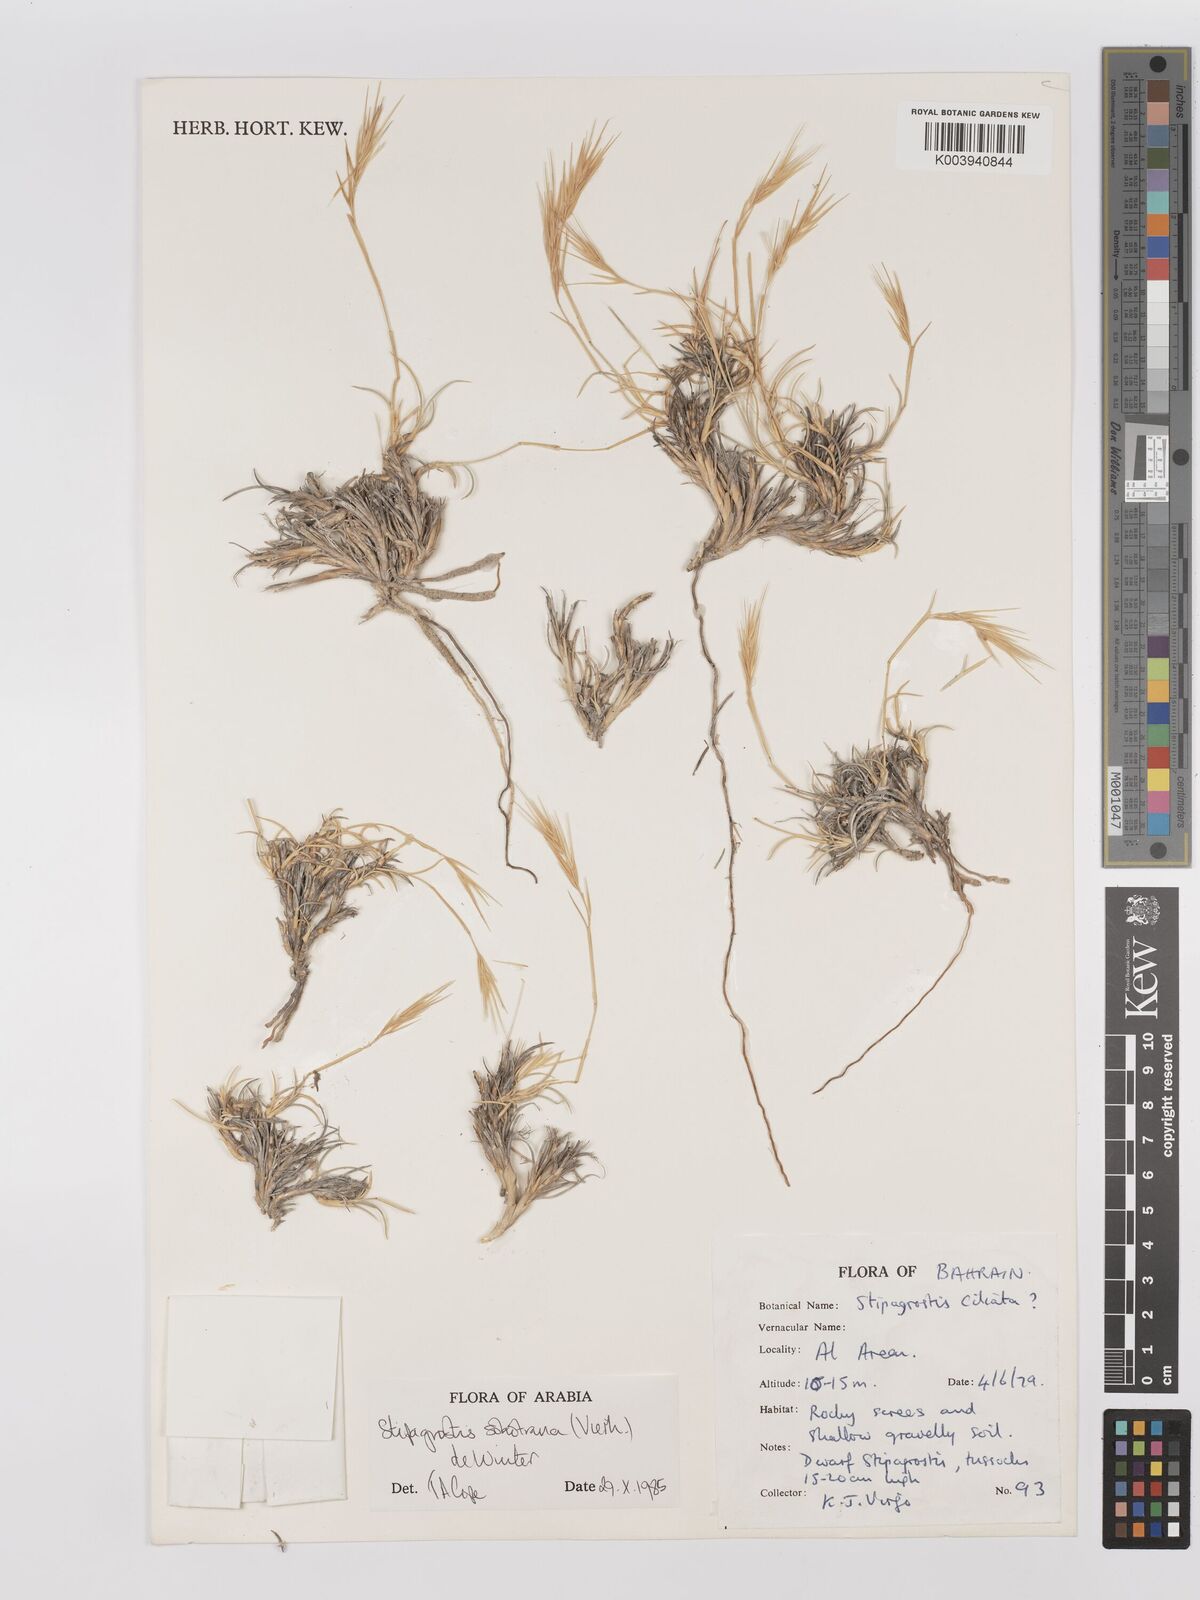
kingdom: Plantae
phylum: Tracheophyta
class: Liliopsida
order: Poales
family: Poaceae
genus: Stipagrostis
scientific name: Stipagrostis sokotrana
